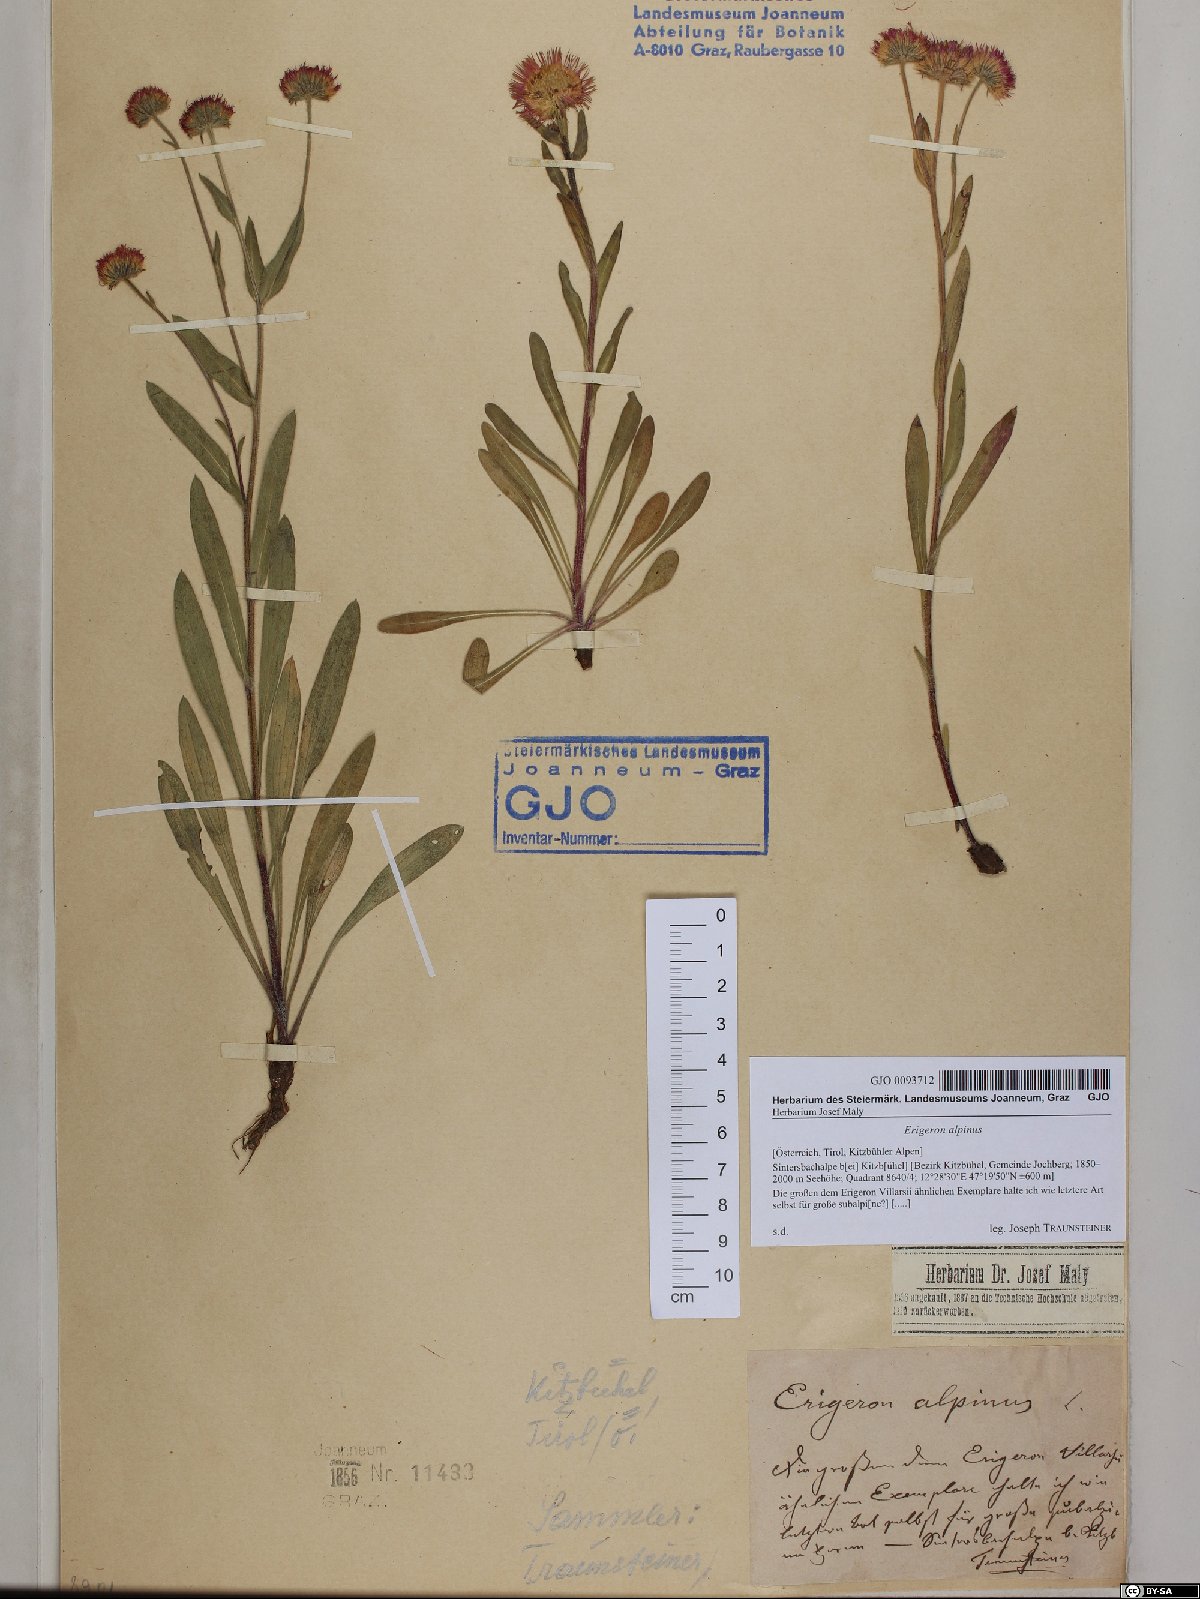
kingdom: Plantae
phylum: Tracheophyta
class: Magnoliopsida
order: Asterales
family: Asteraceae
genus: Erigeron
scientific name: Erigeron alpinus
